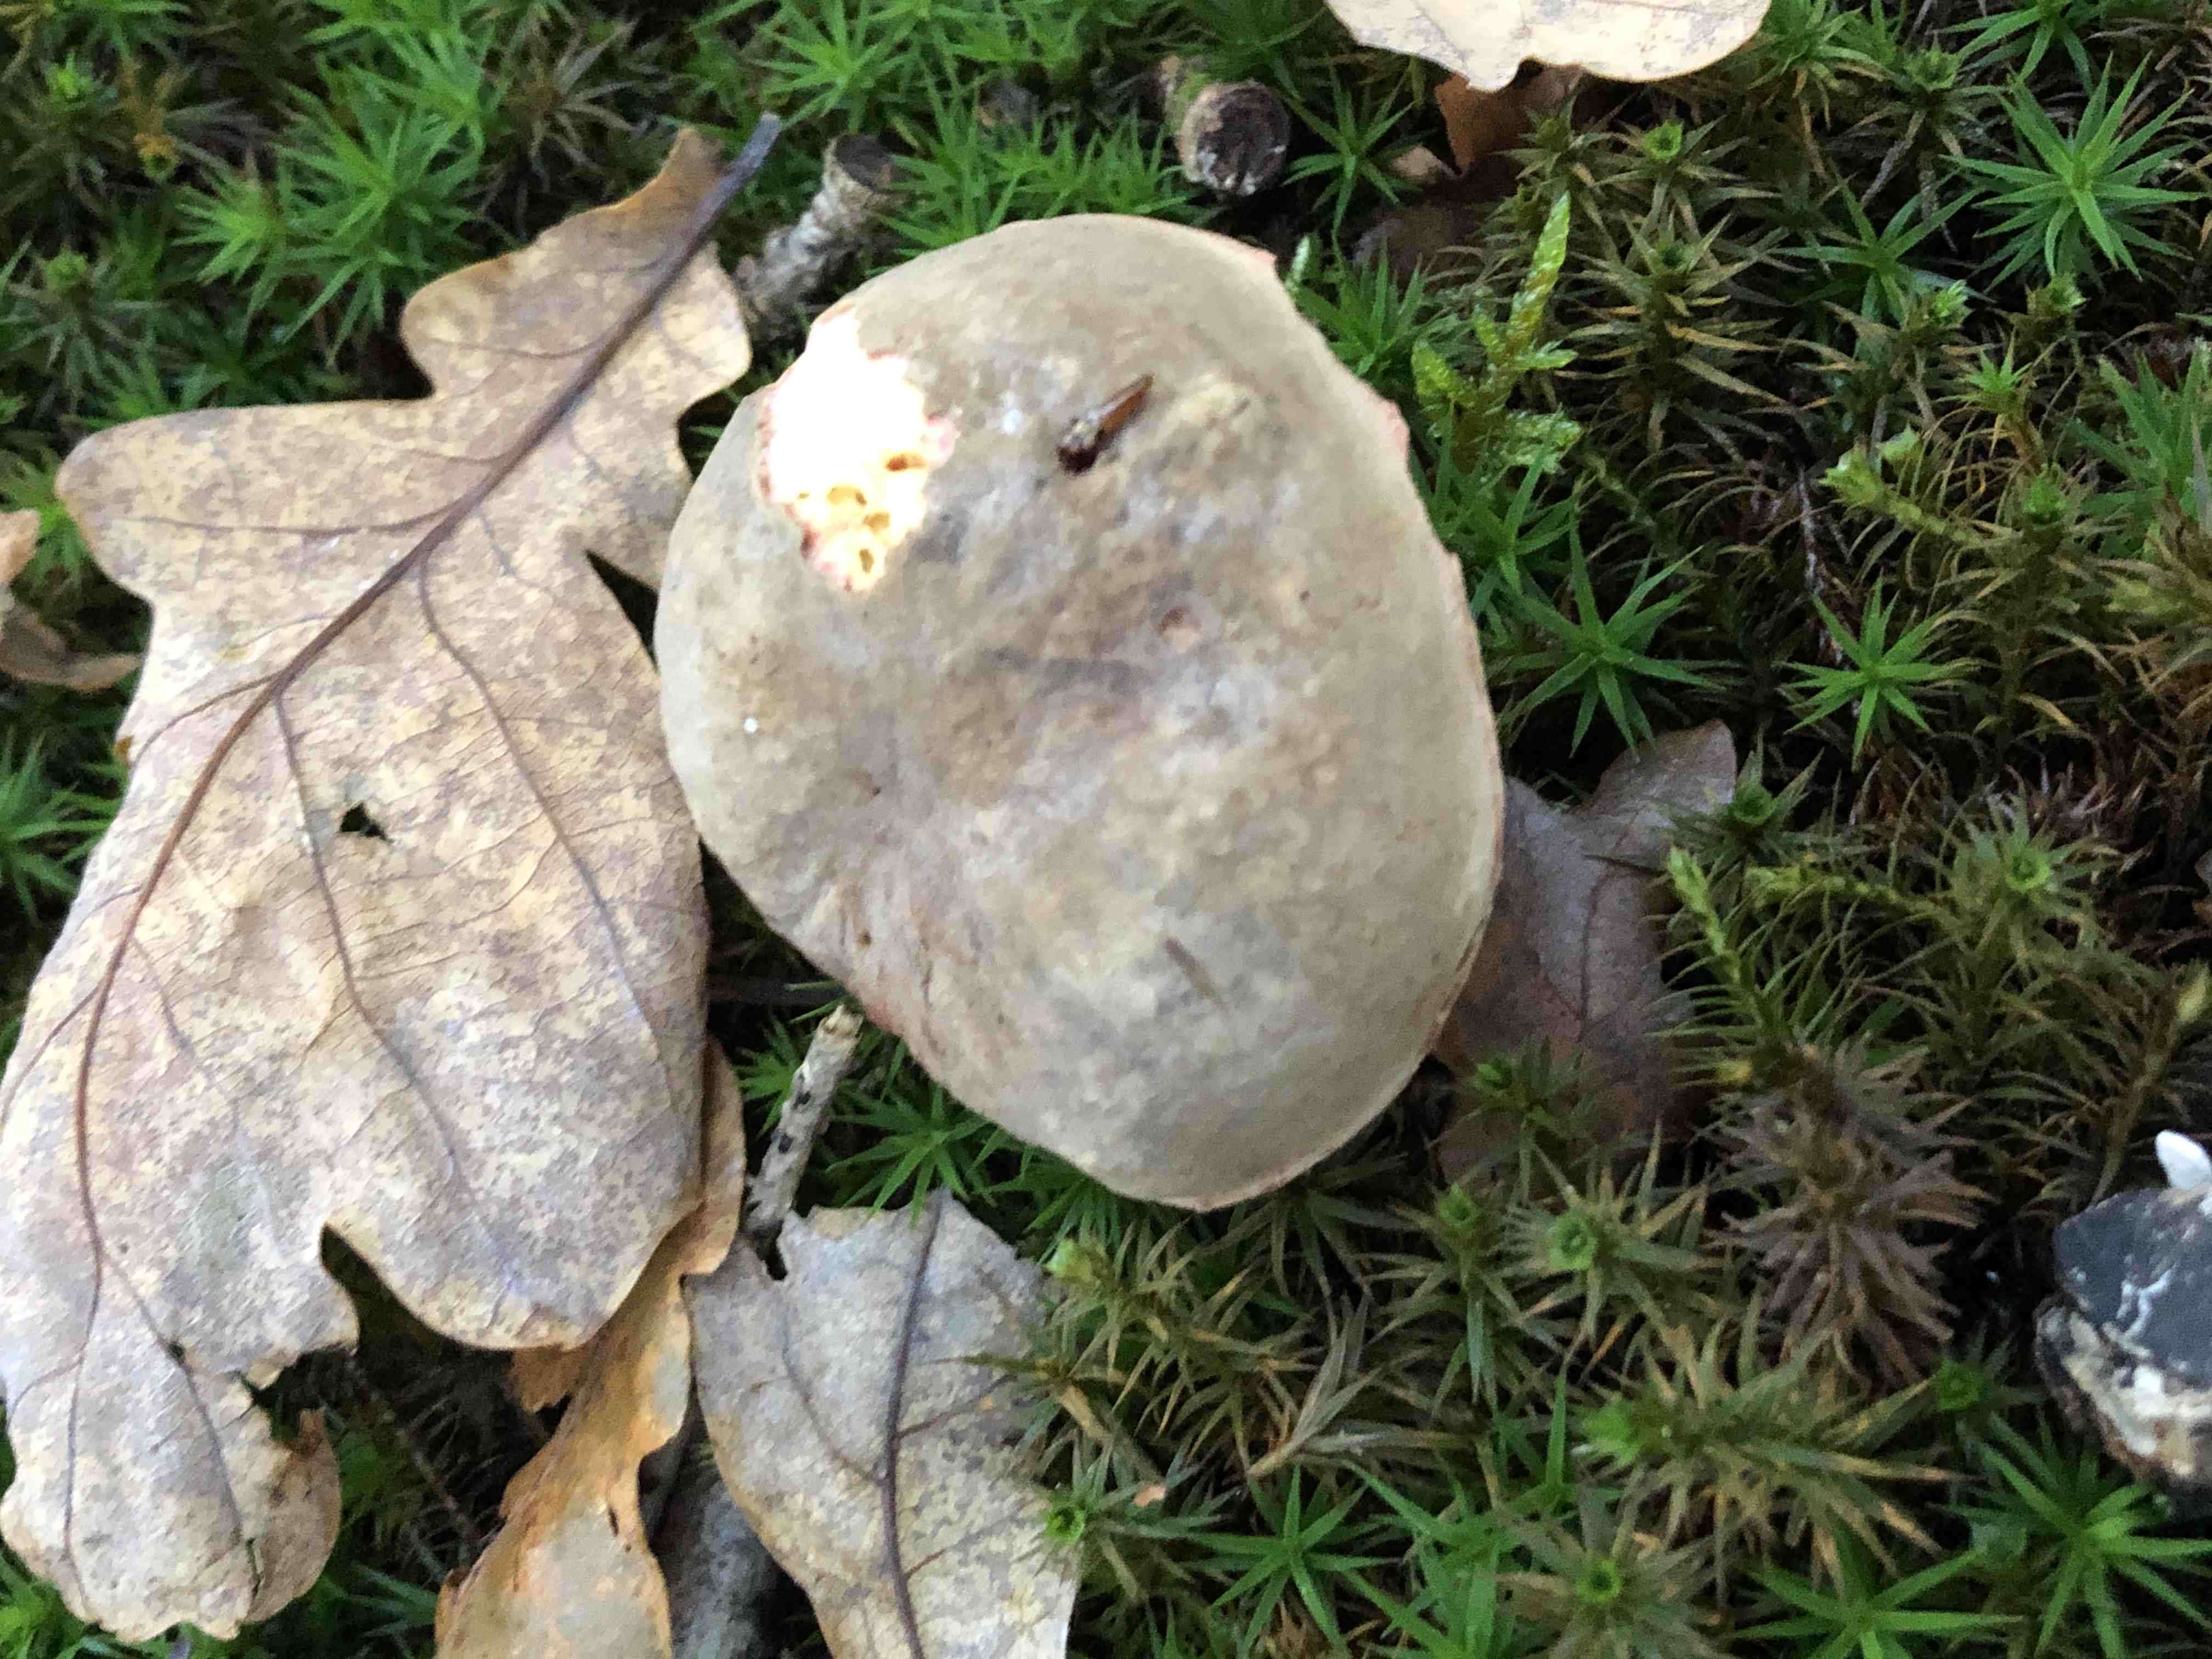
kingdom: Fungi
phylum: Basidiomycota
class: Agaricomycetes
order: Boletales
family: Boletaceae
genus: Xerocomellus
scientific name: Xerocomellus pruinatus
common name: dugget rørhat
